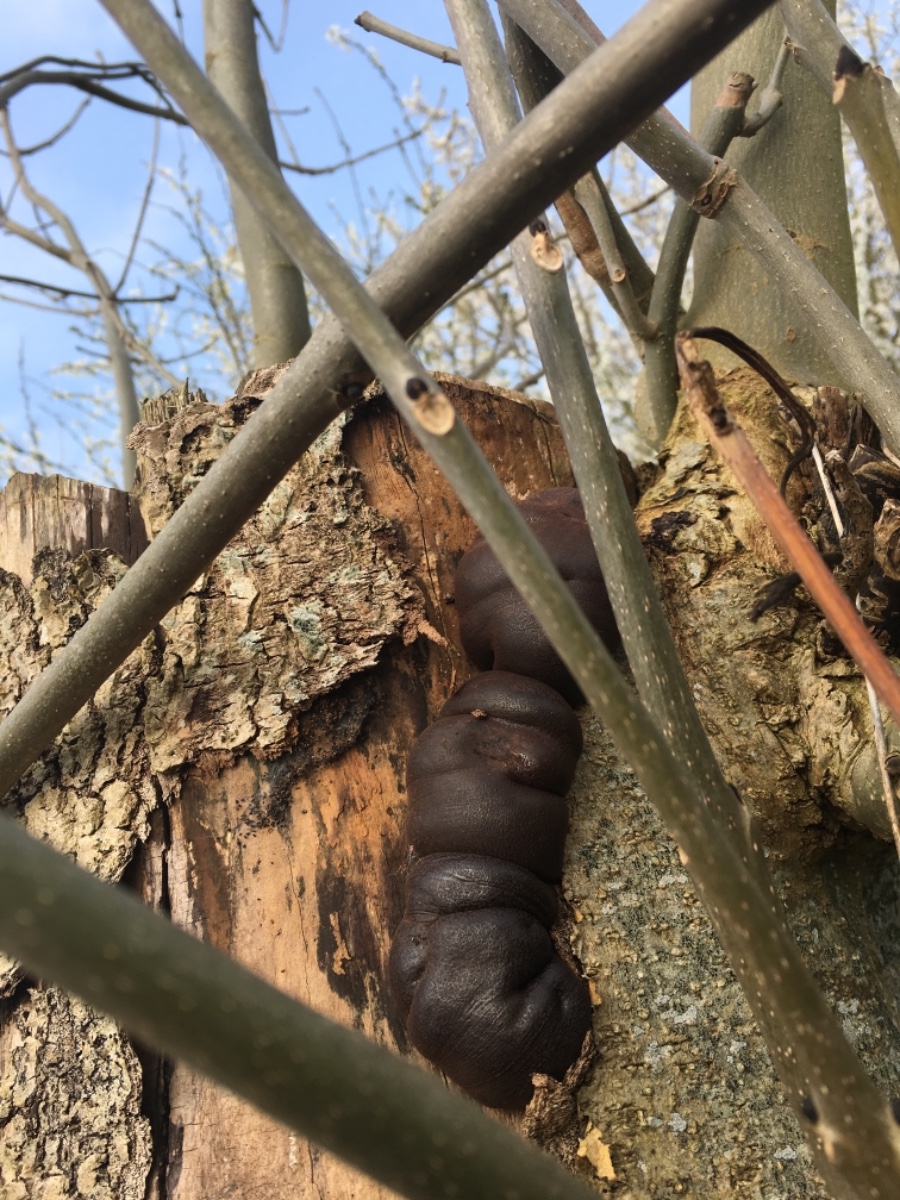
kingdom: Fungi
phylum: Ascomycota
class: Sordariomycetes
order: Xylariales
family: Hypoxylaceae
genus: Daldinia
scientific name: Daldinia concentrica
